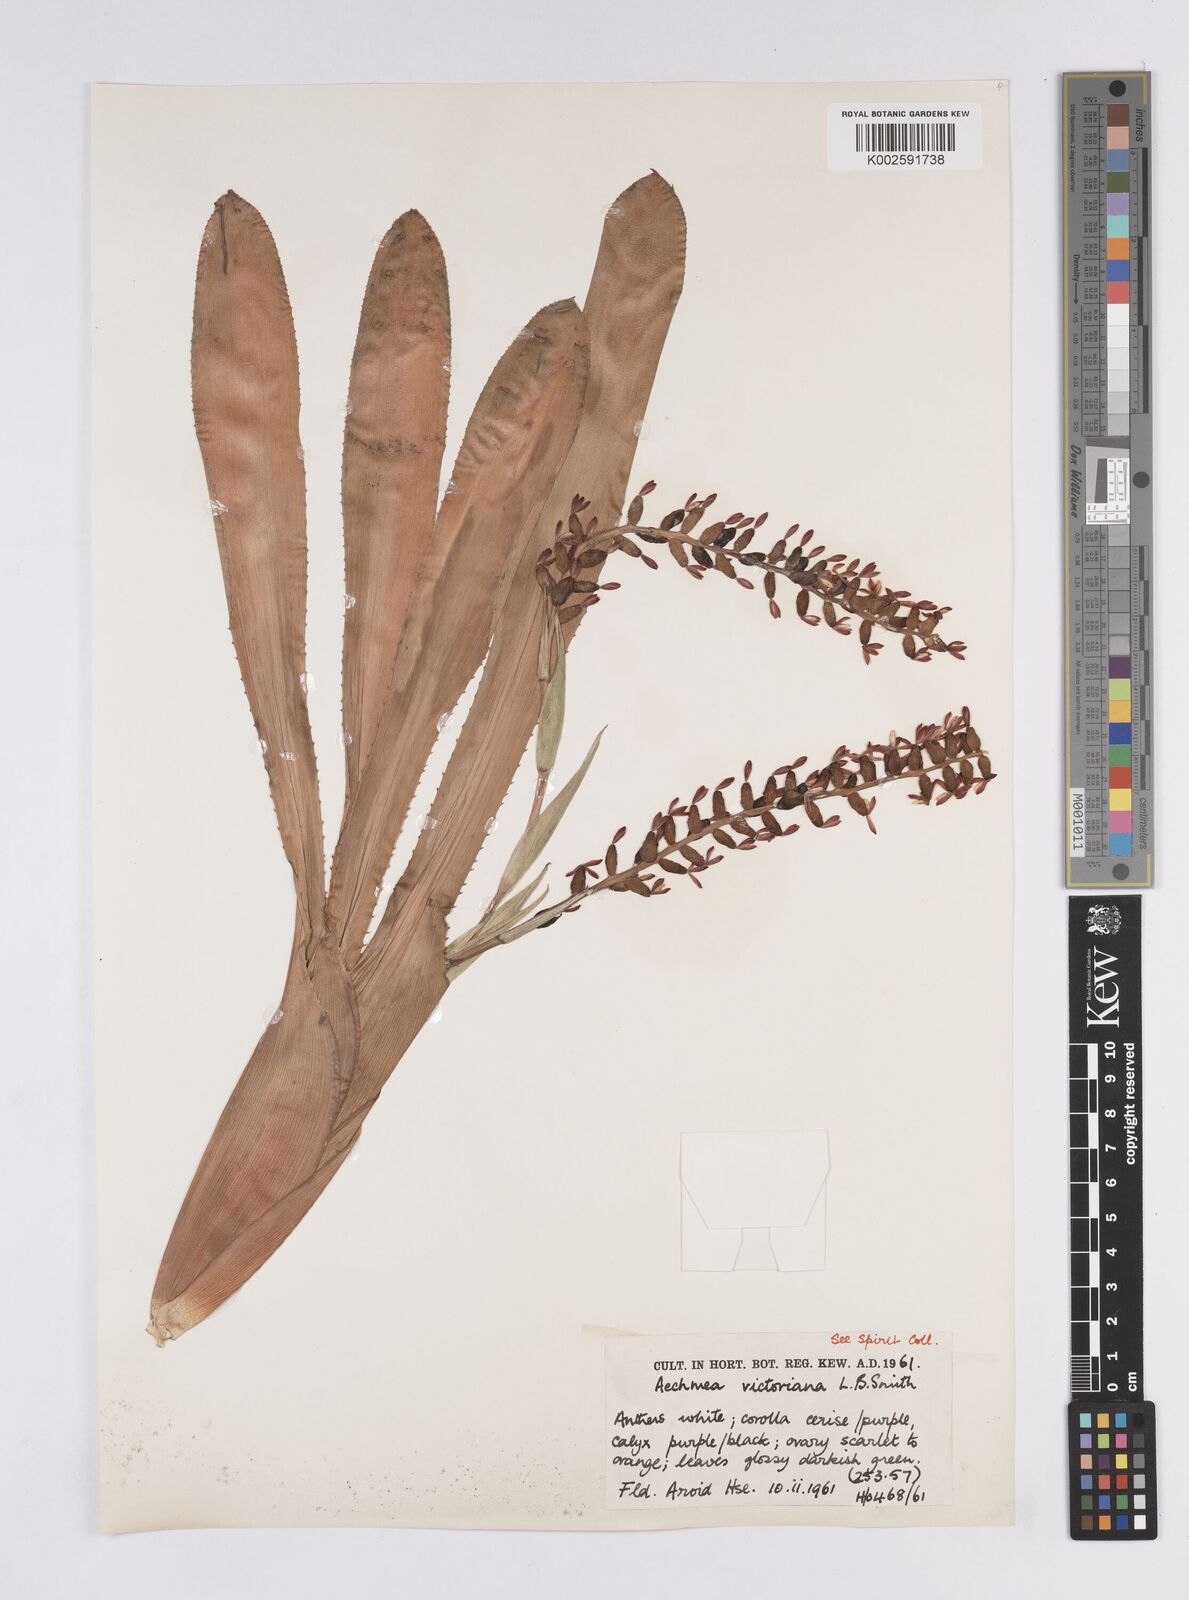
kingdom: Plantae
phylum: Tracheophyta
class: Liliopsida
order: Poales
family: Bromeliaceae
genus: Aechmea
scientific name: Aechmea victoriana
